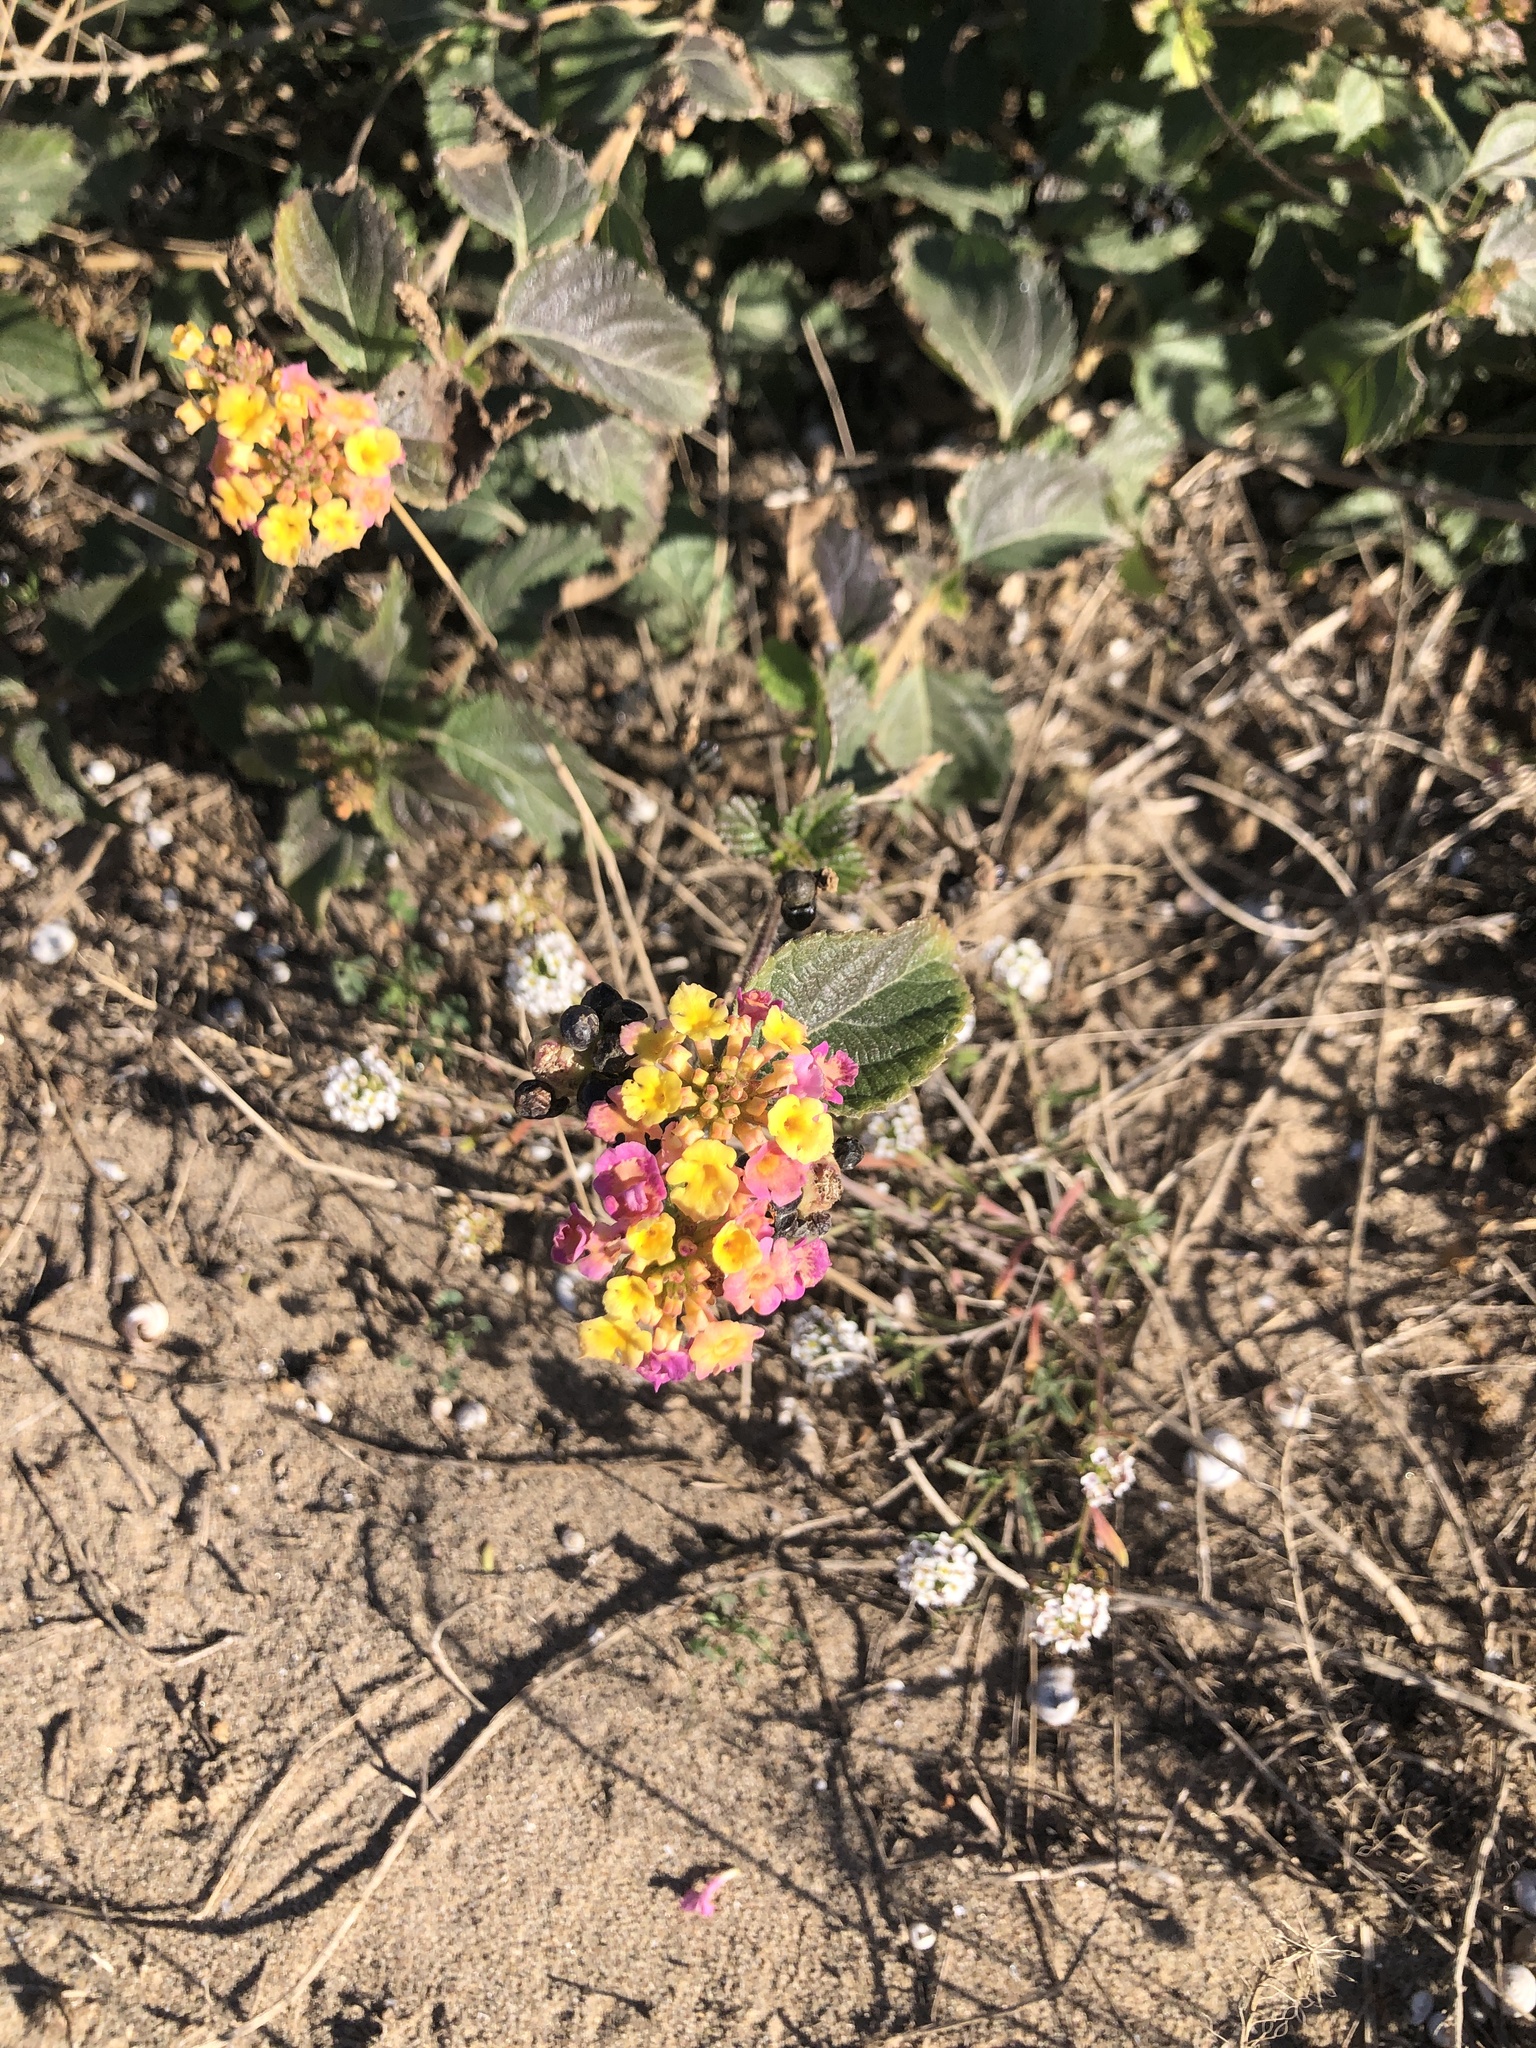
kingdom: Plantae
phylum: Tracheophyta
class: Magnoliopsida
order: Lamiales
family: Verbenaceae
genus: Lantana
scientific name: Lantana camara
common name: Lantana
